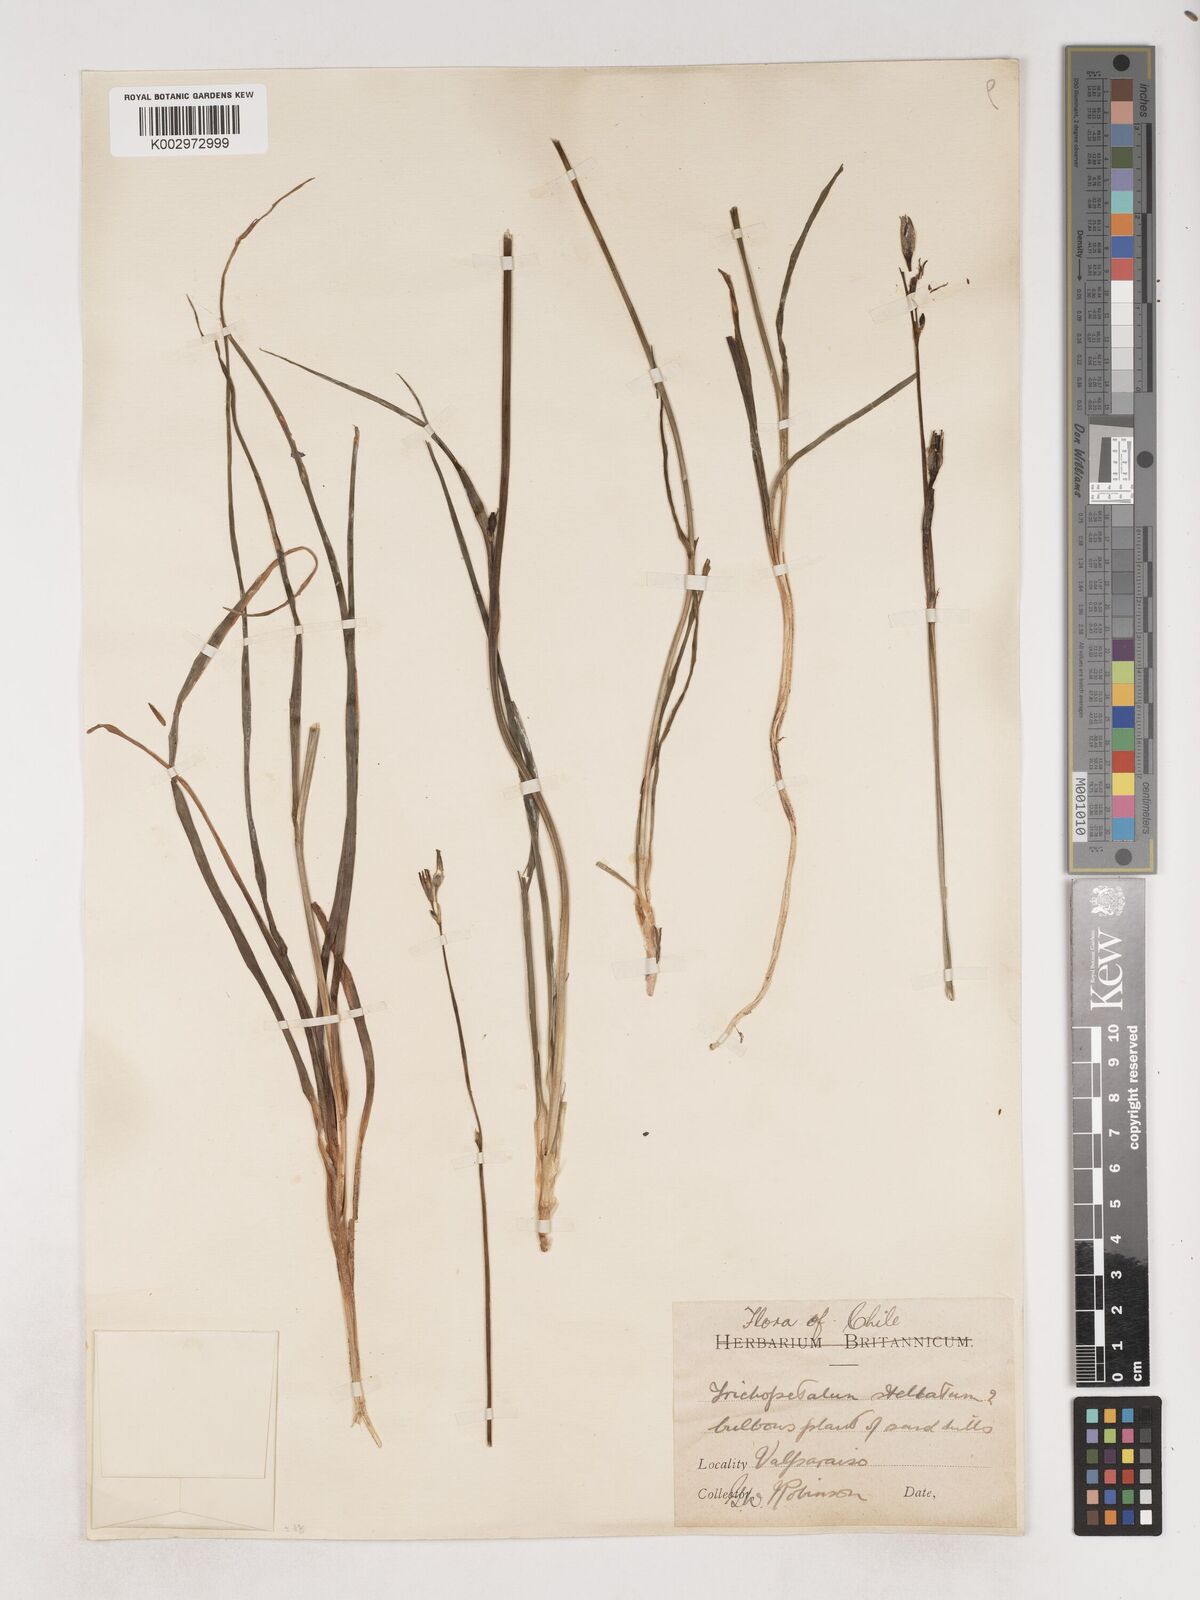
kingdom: Plantae
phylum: Tracheophyta
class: Liliopsida
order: Asparagales
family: Asparagaceae
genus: Trichopetalum
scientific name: Trichopetalum plumosum
